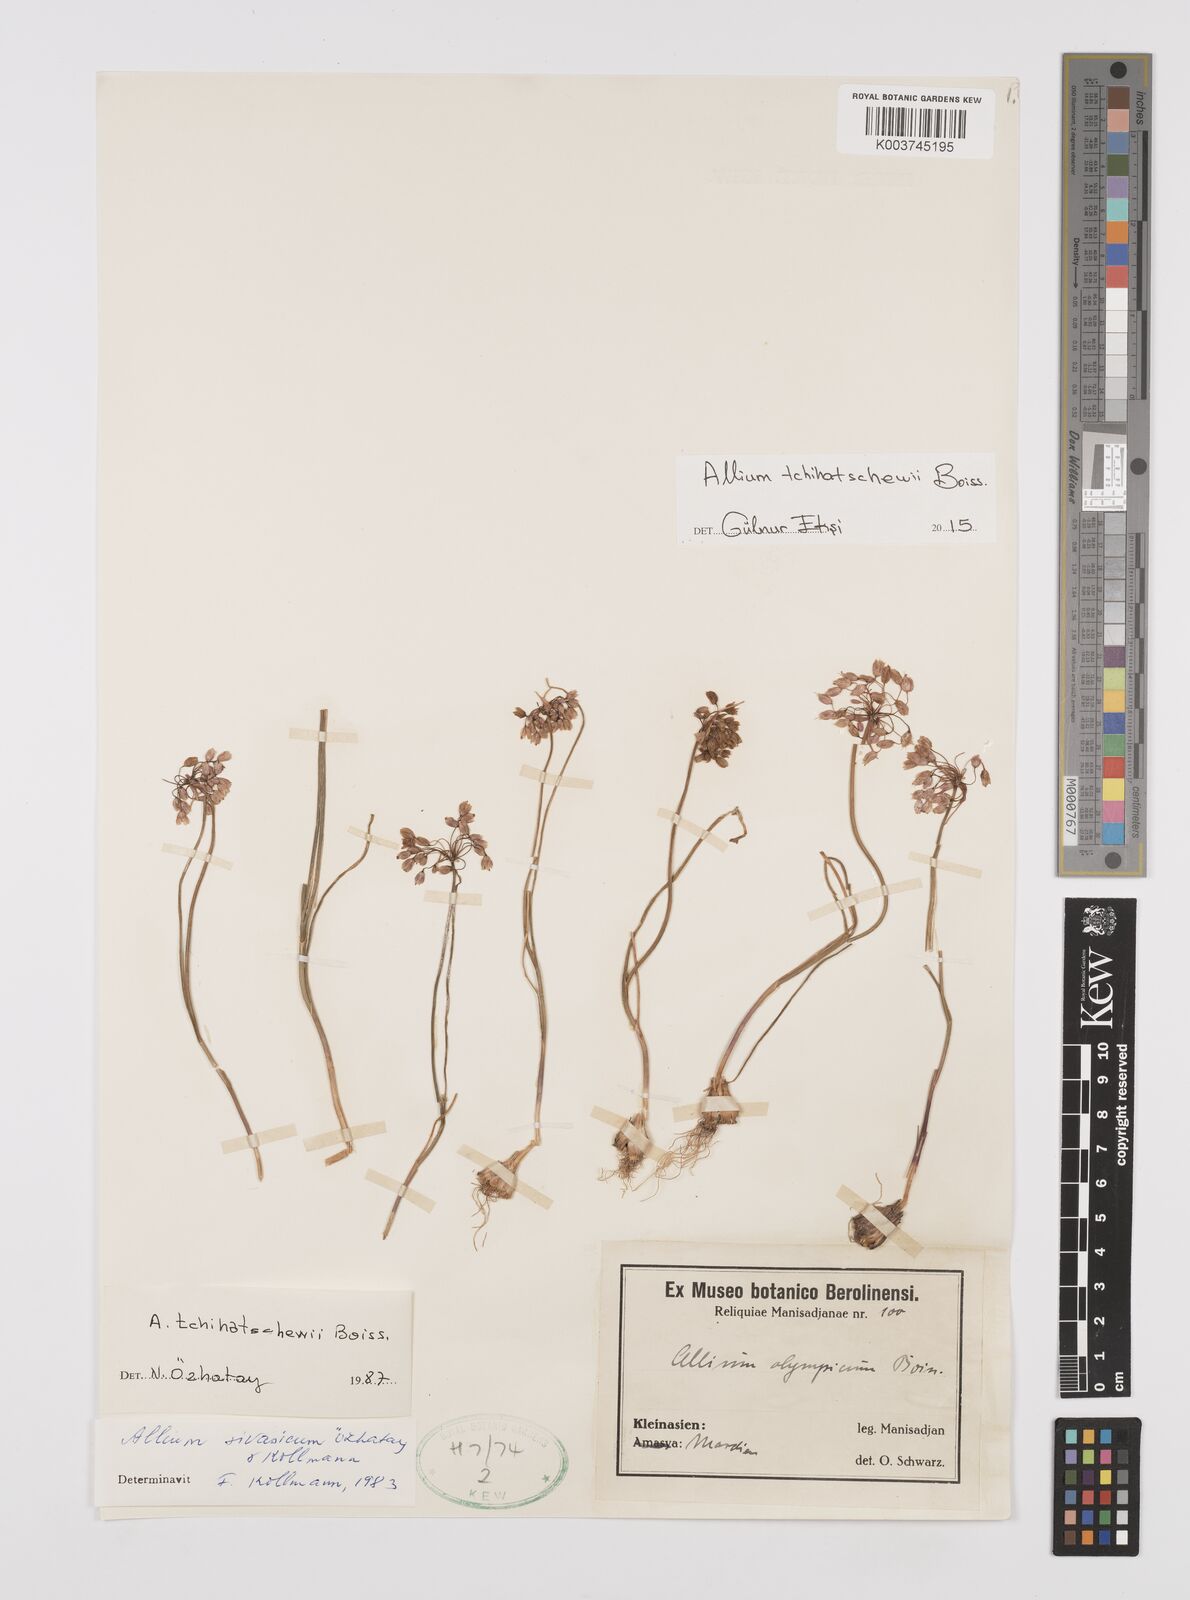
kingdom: Plantae
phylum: Tracheophyta
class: Liliopsida
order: Asparagales
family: Amaryllidaceae
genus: Allium
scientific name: Allium tchihatschewii
